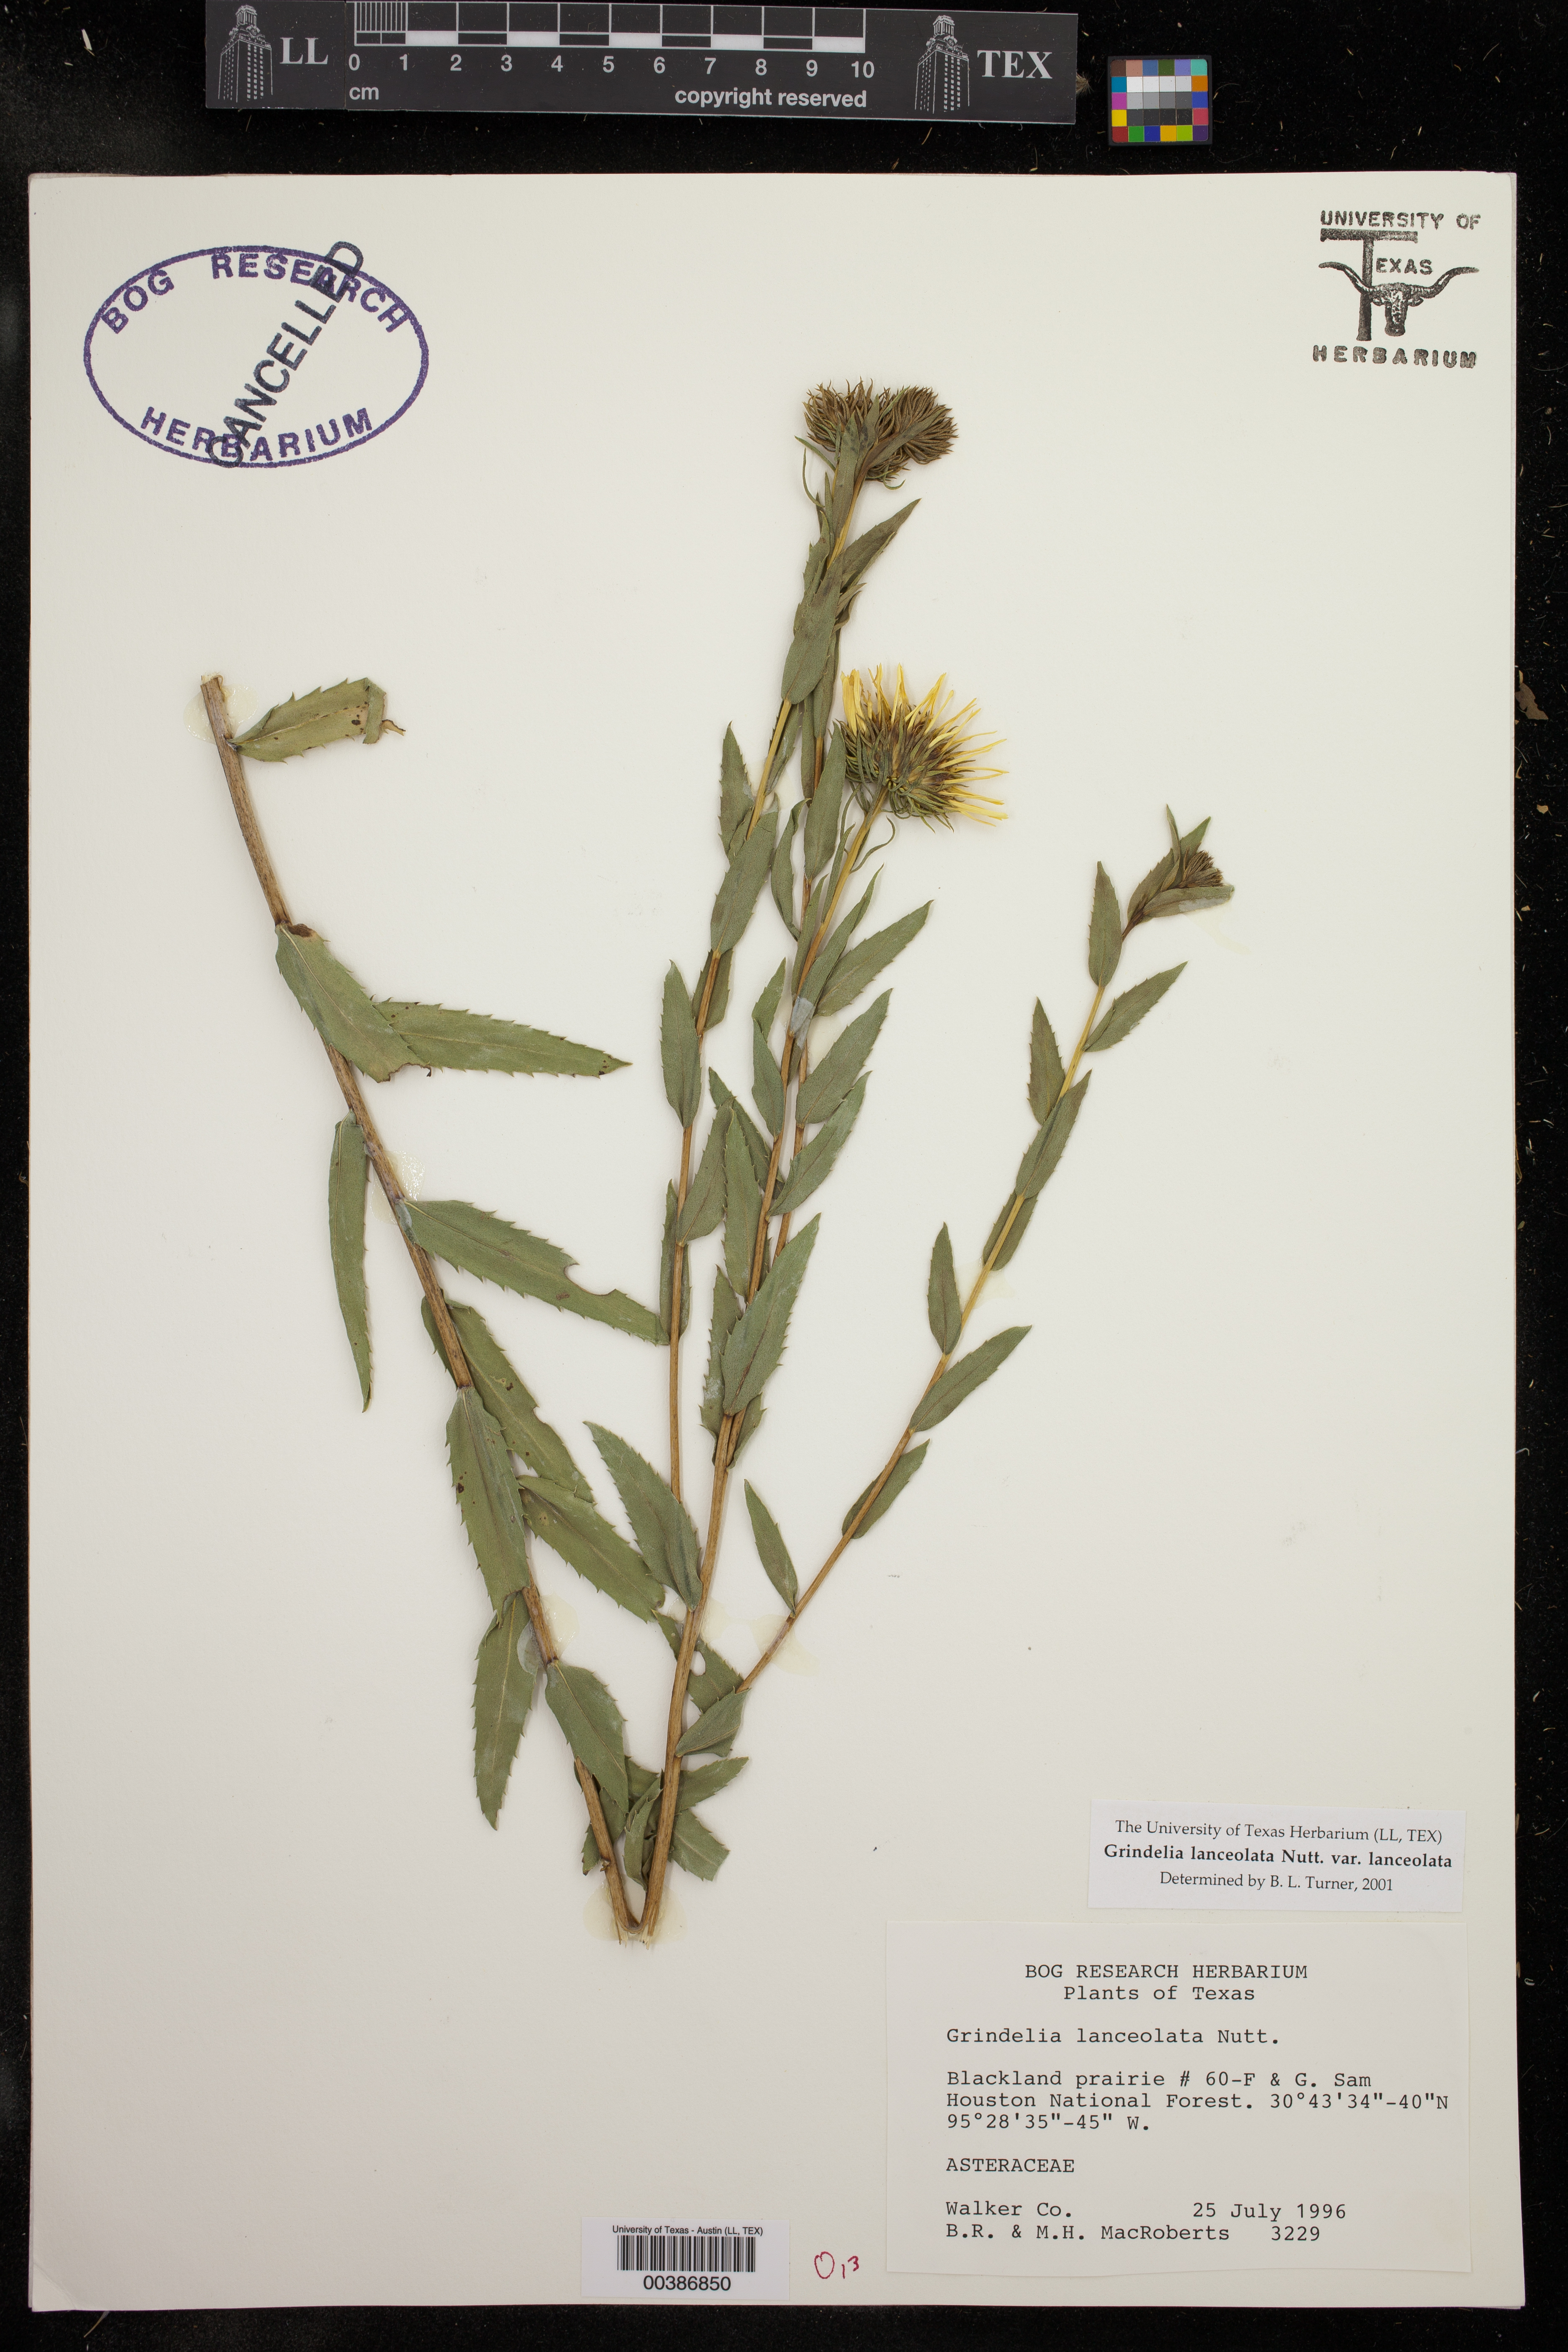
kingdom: Plantae
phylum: Tracheophyta
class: Magnoliopsida
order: Asterales
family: Asteraceae
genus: Grindelia
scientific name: Grindelia lanceolata
